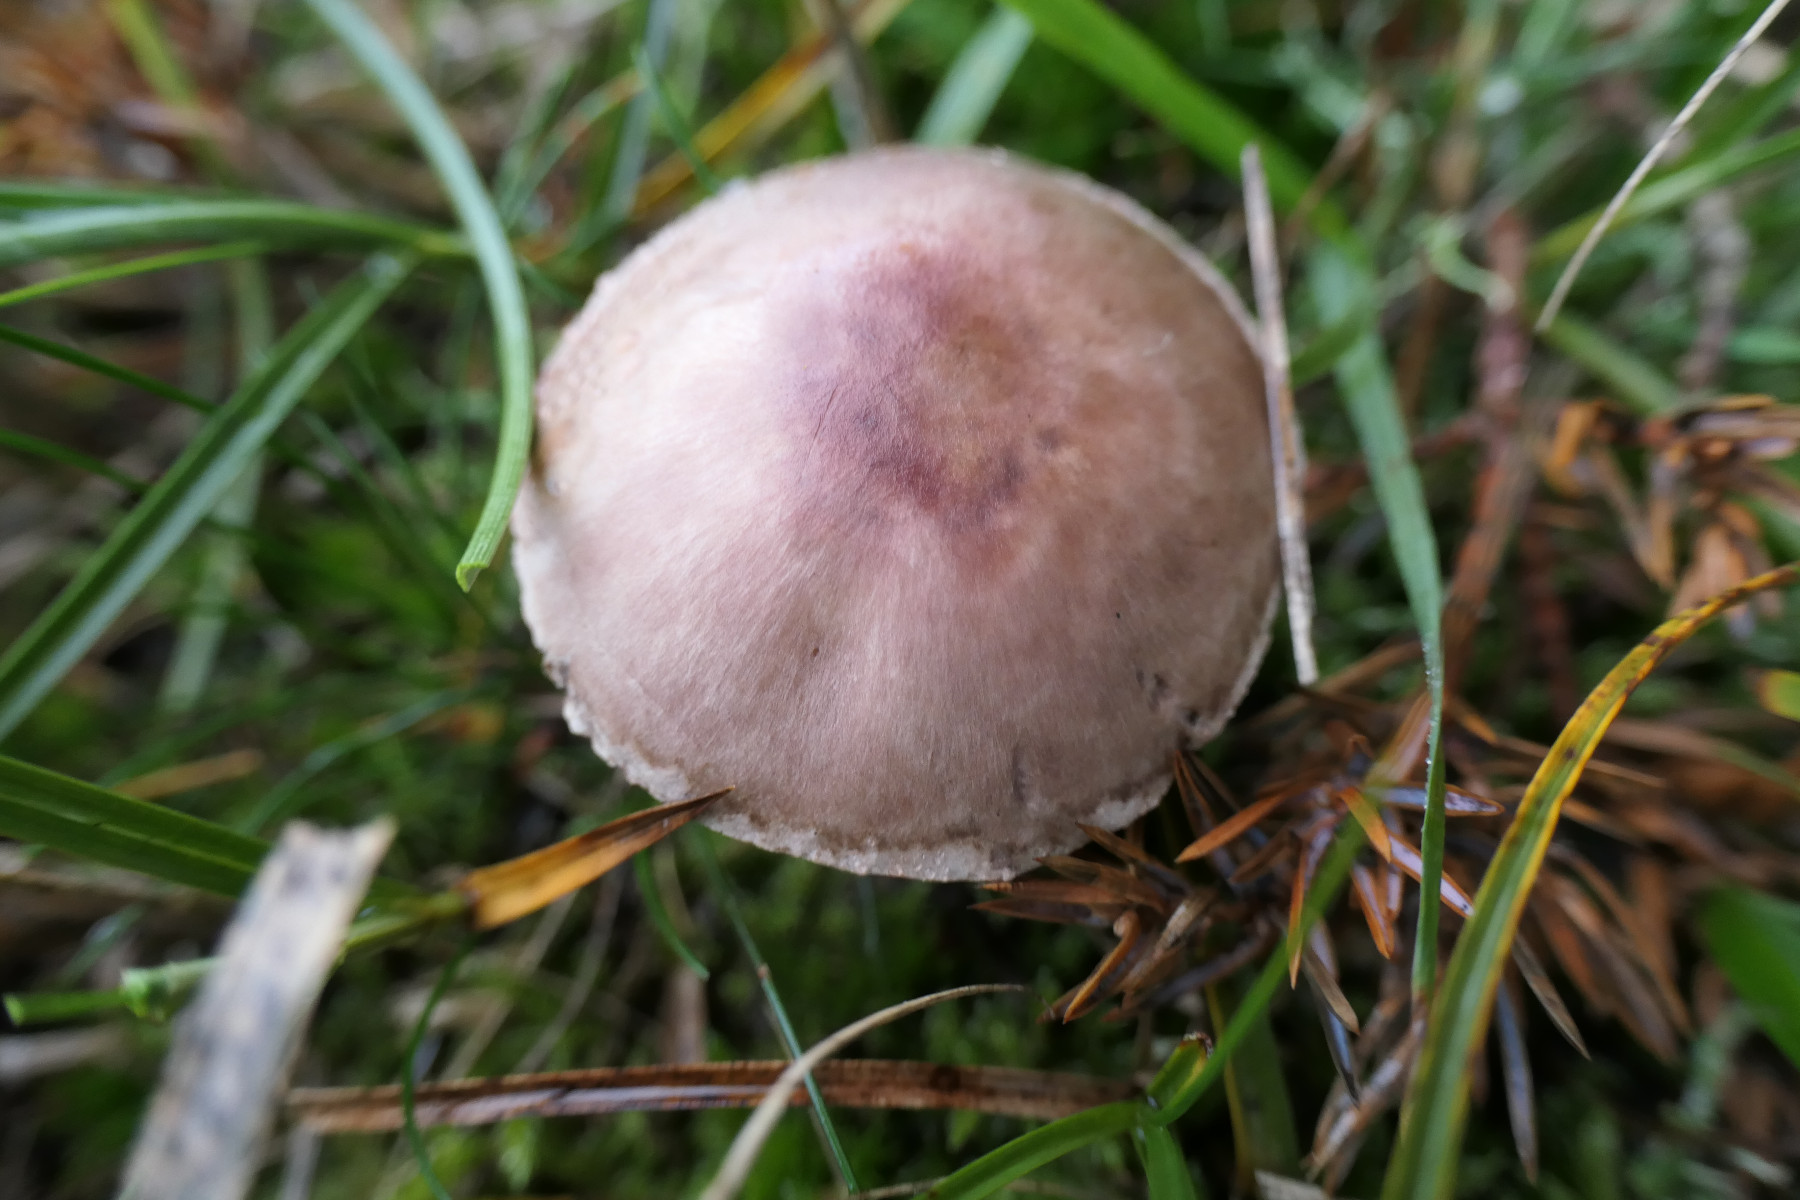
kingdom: Fungi
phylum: Basidiomycota
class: Agaricomycetes
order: Agaricales
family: Agaricaceae
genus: Agaricus
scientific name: Agaricus dulcidulus
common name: blegrød champignon
